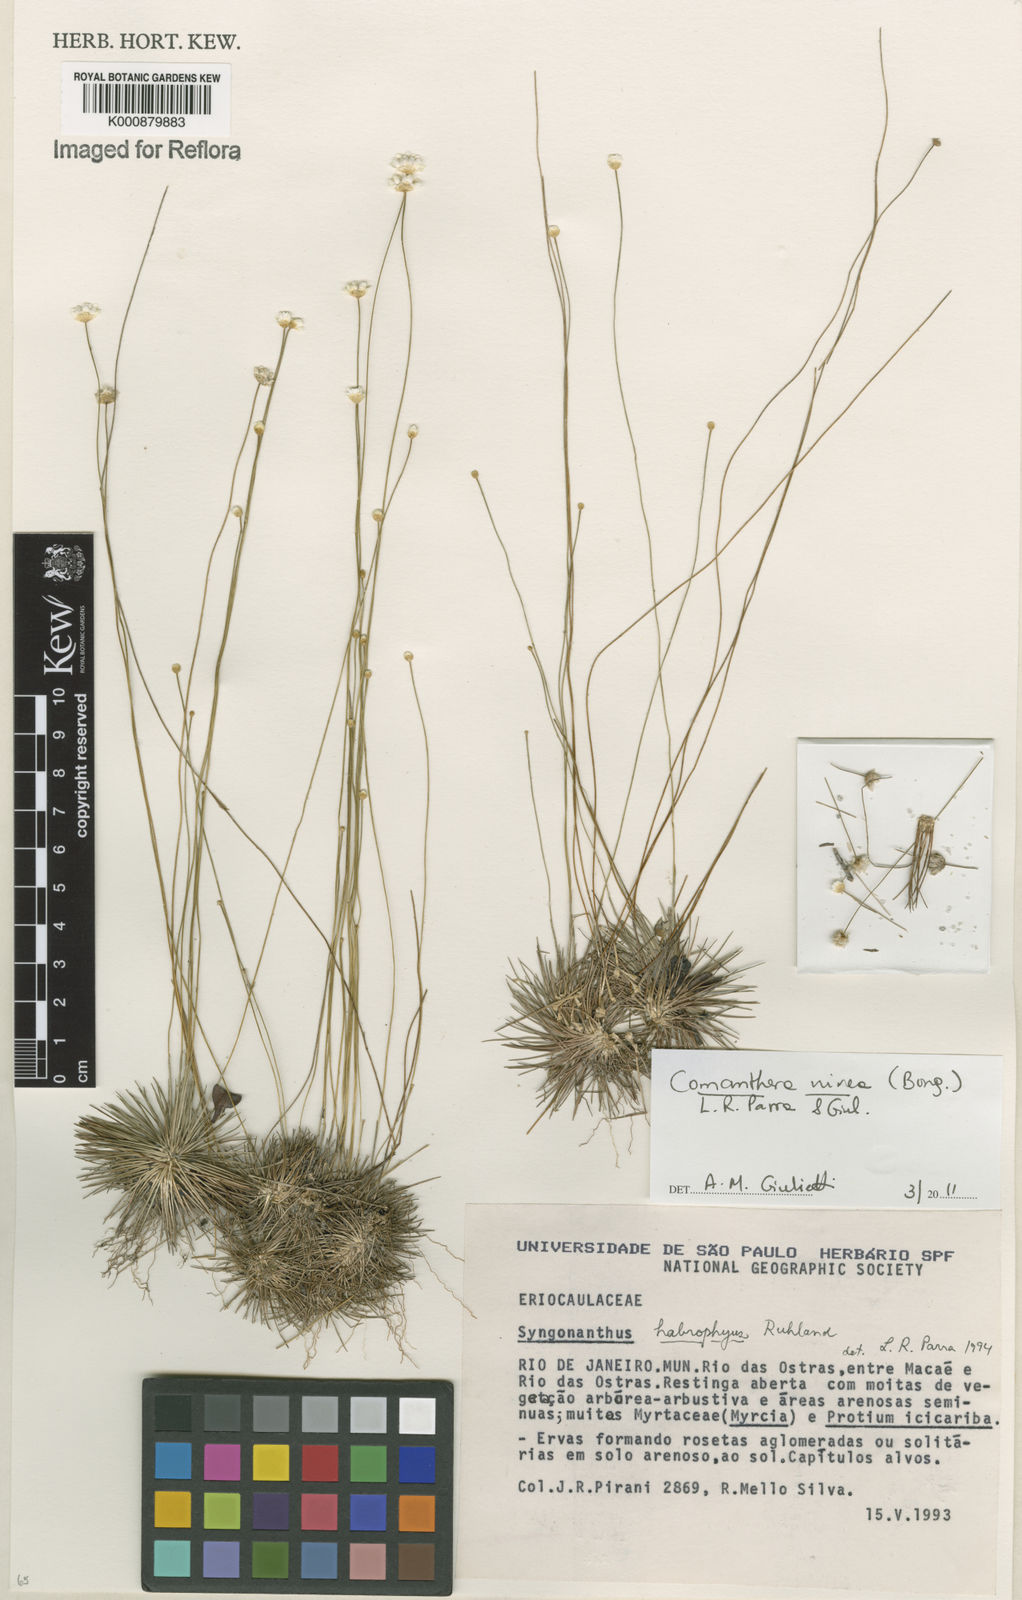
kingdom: Plantae
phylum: Tracheophyta
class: Liliopsida
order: Poales
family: Eriocaulaceae
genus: Comanthera
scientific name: Comanthera nivea
